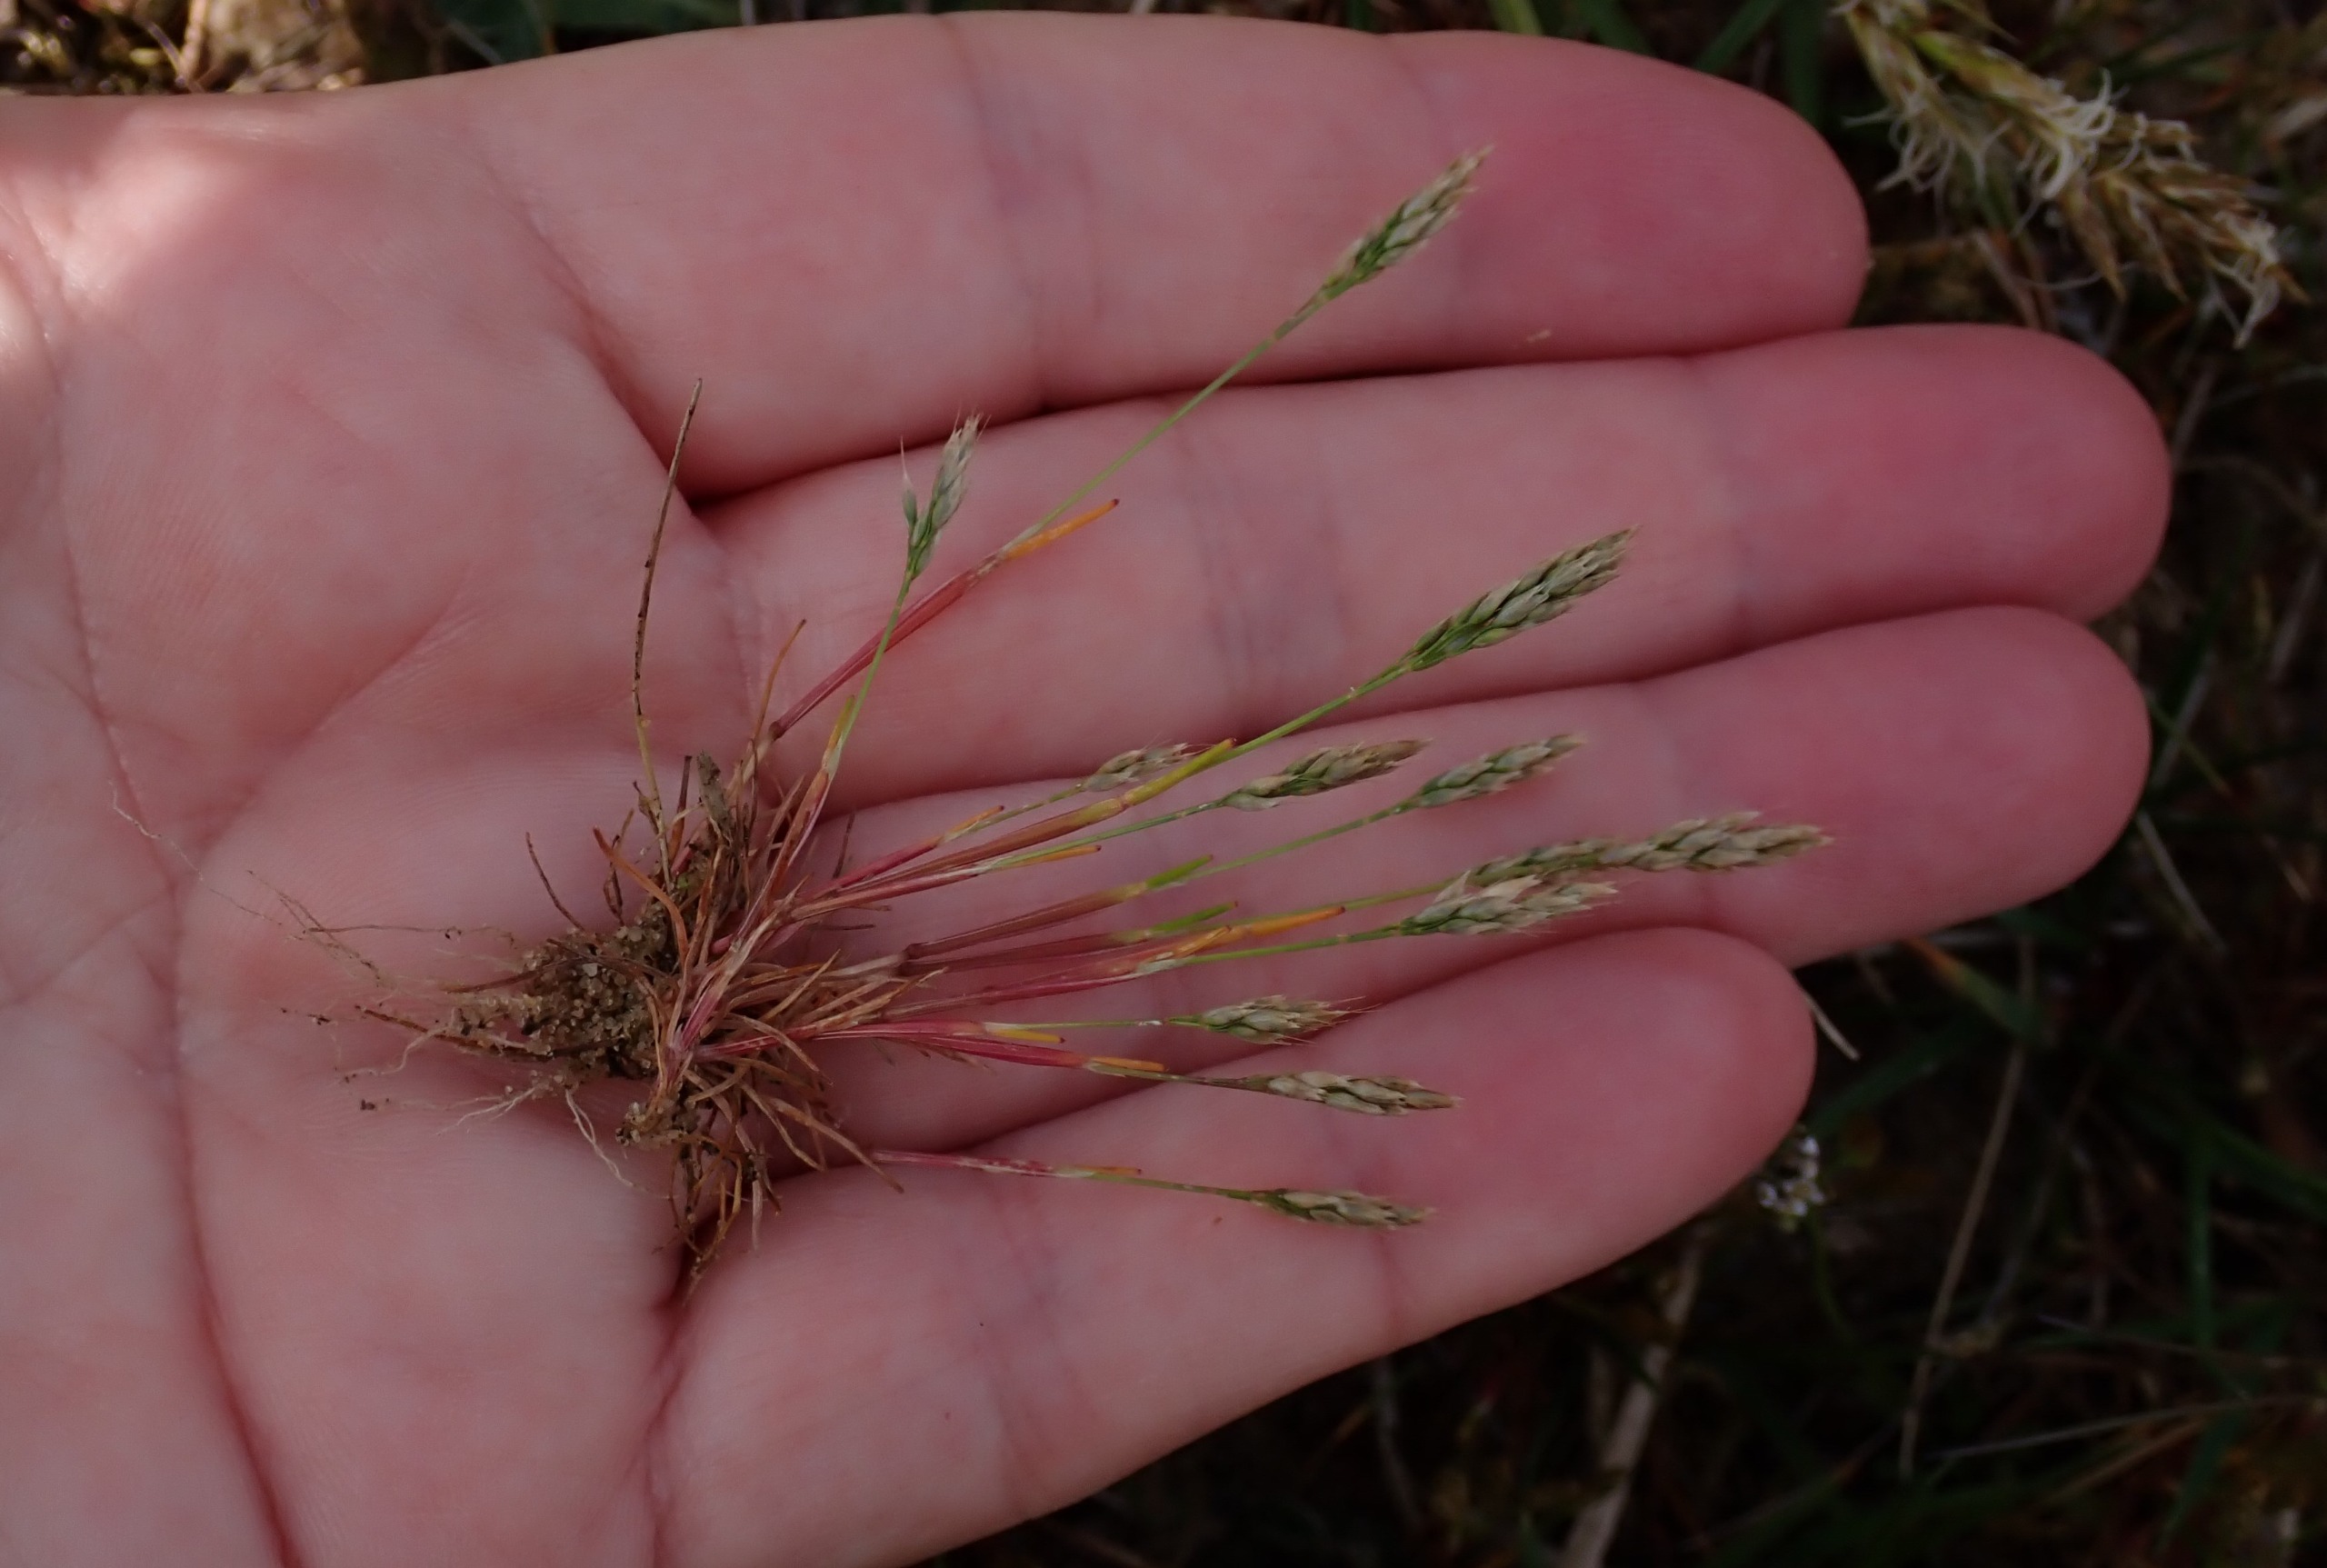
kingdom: Plantae
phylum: Tracheophyta
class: Liliopsida
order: Poales
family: Poaceae
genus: Aira
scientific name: Aira praecox
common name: Tidlig dværgbunke
